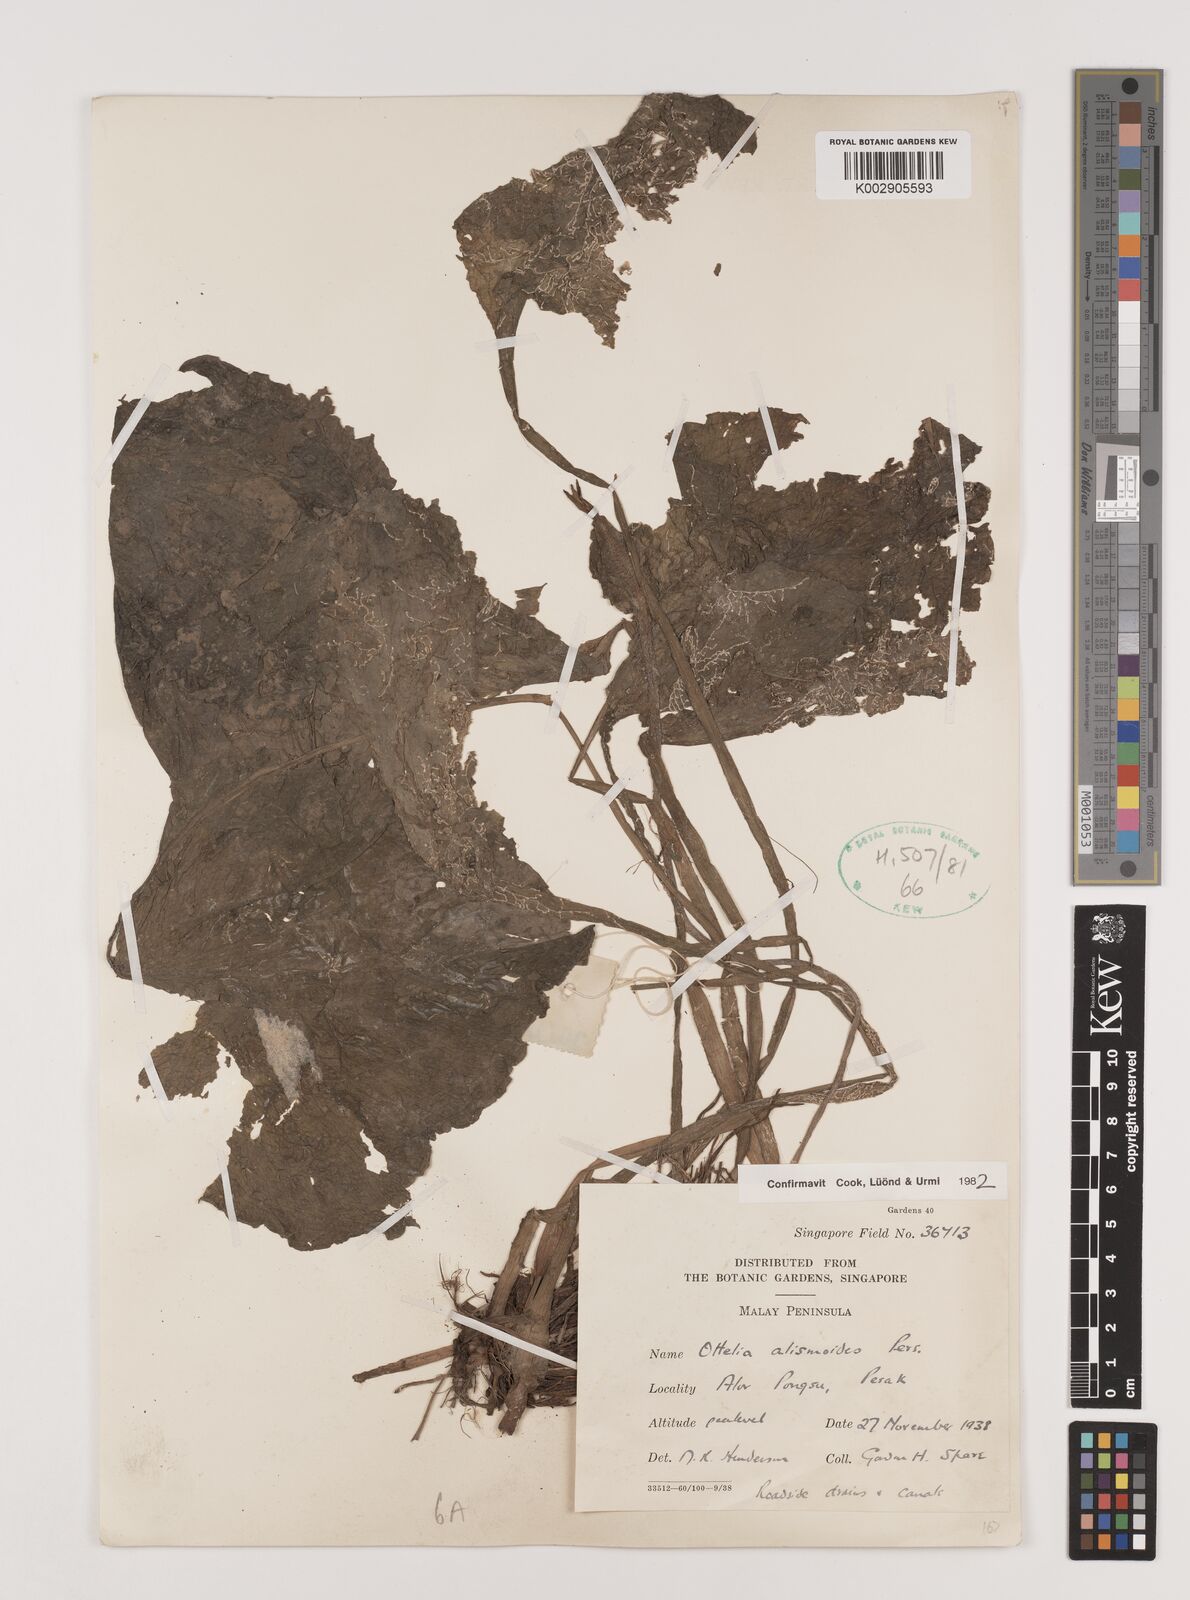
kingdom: Plantae
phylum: Tracheophyta
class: Liliopsida
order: Alismatales
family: Hydrocharitaceae
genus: Ottelia
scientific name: Ottelia alismoides
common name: Duck-lettuce
